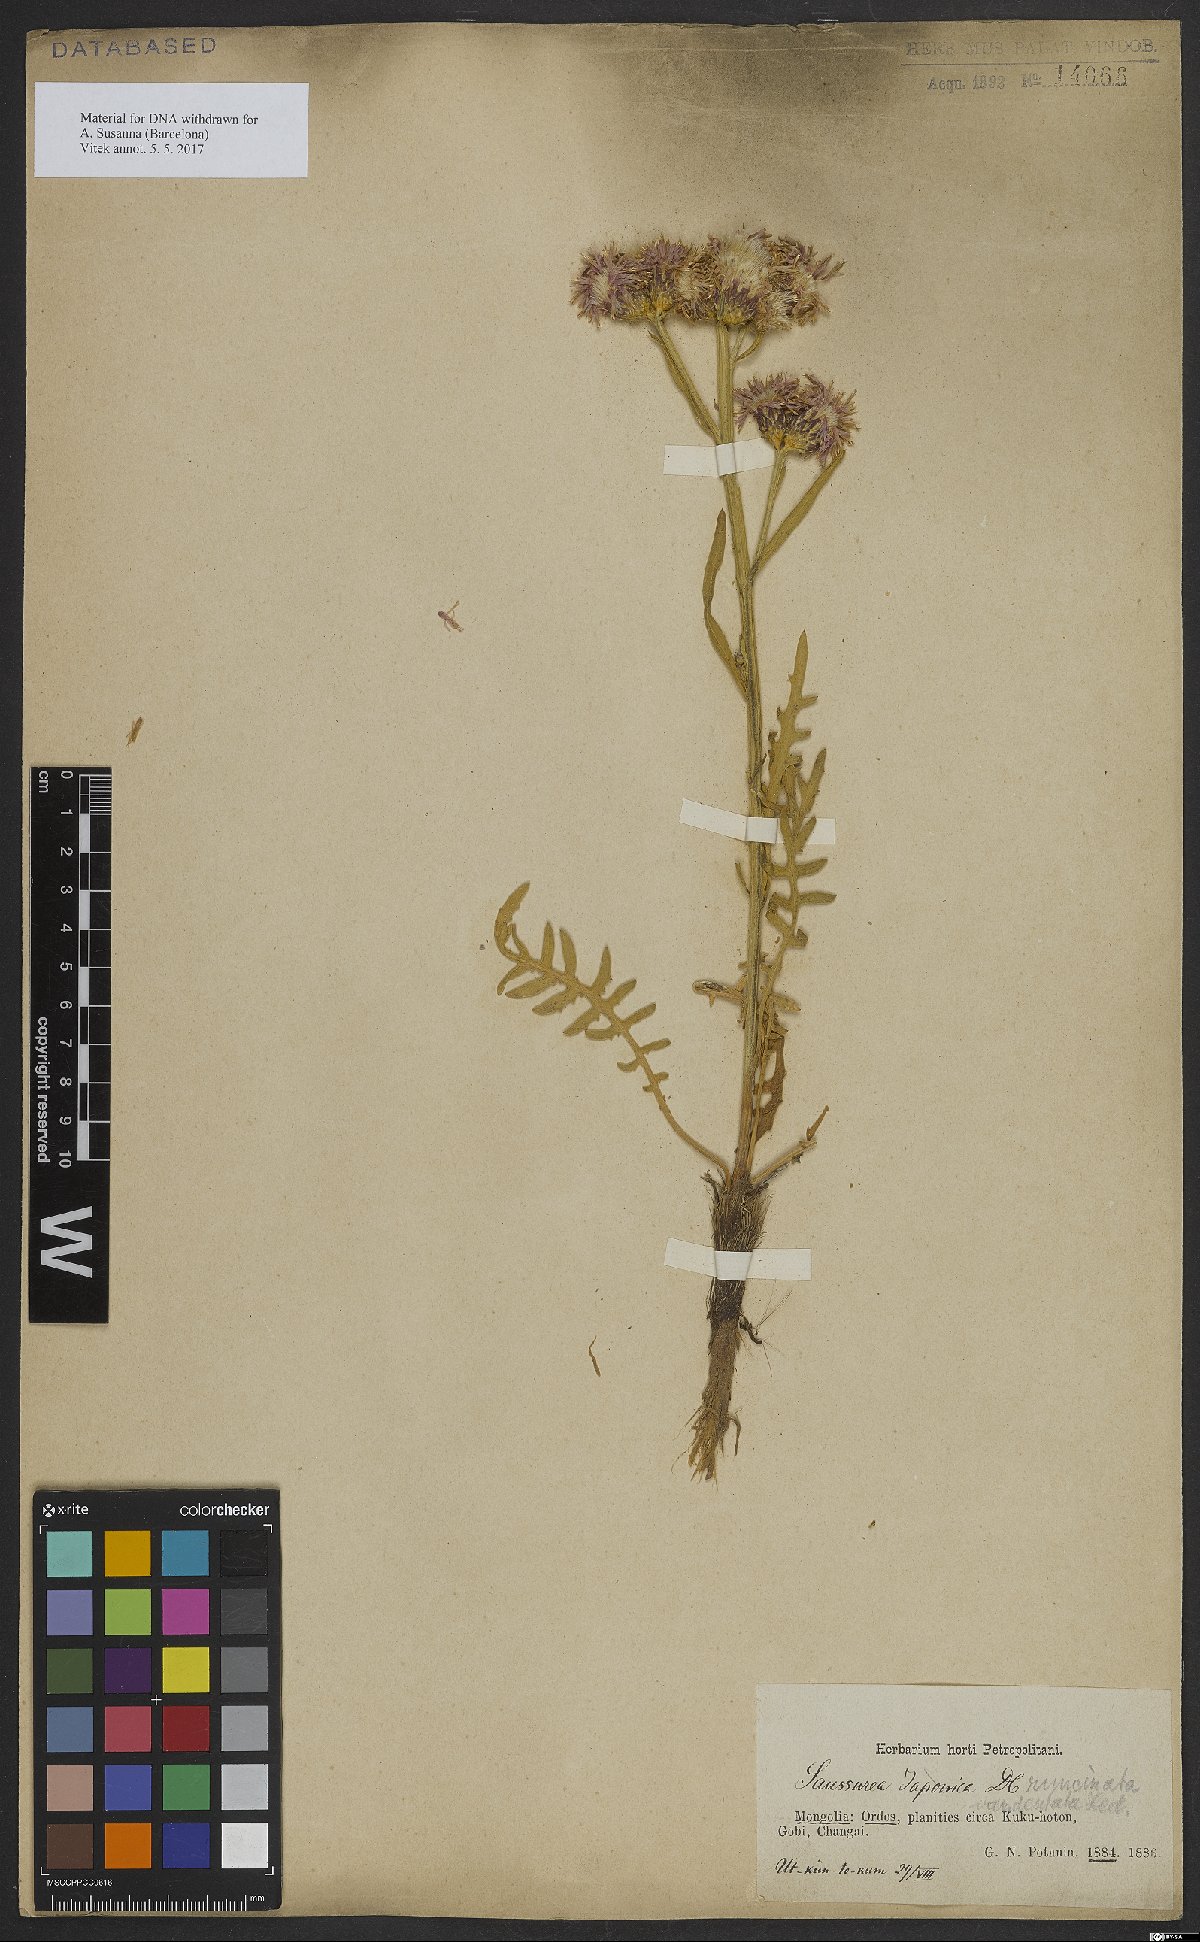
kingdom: Plantae
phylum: Tracheophyta
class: Magnoliopsida
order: Asterales
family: Asteraceae
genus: Saussurea
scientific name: Saussurea runcinata
